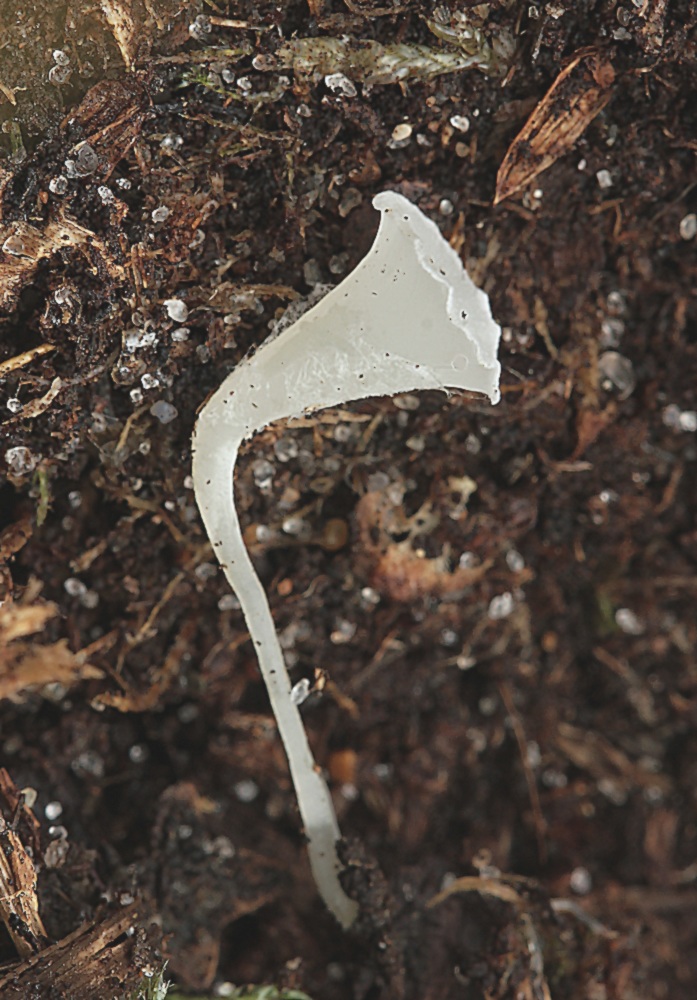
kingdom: Fungi
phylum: Basidiomycota
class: Agaricomycetes
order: Agaricales
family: Clavariaceae
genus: Clavicorona
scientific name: Clavicorona taxophila
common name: trompetkølle
